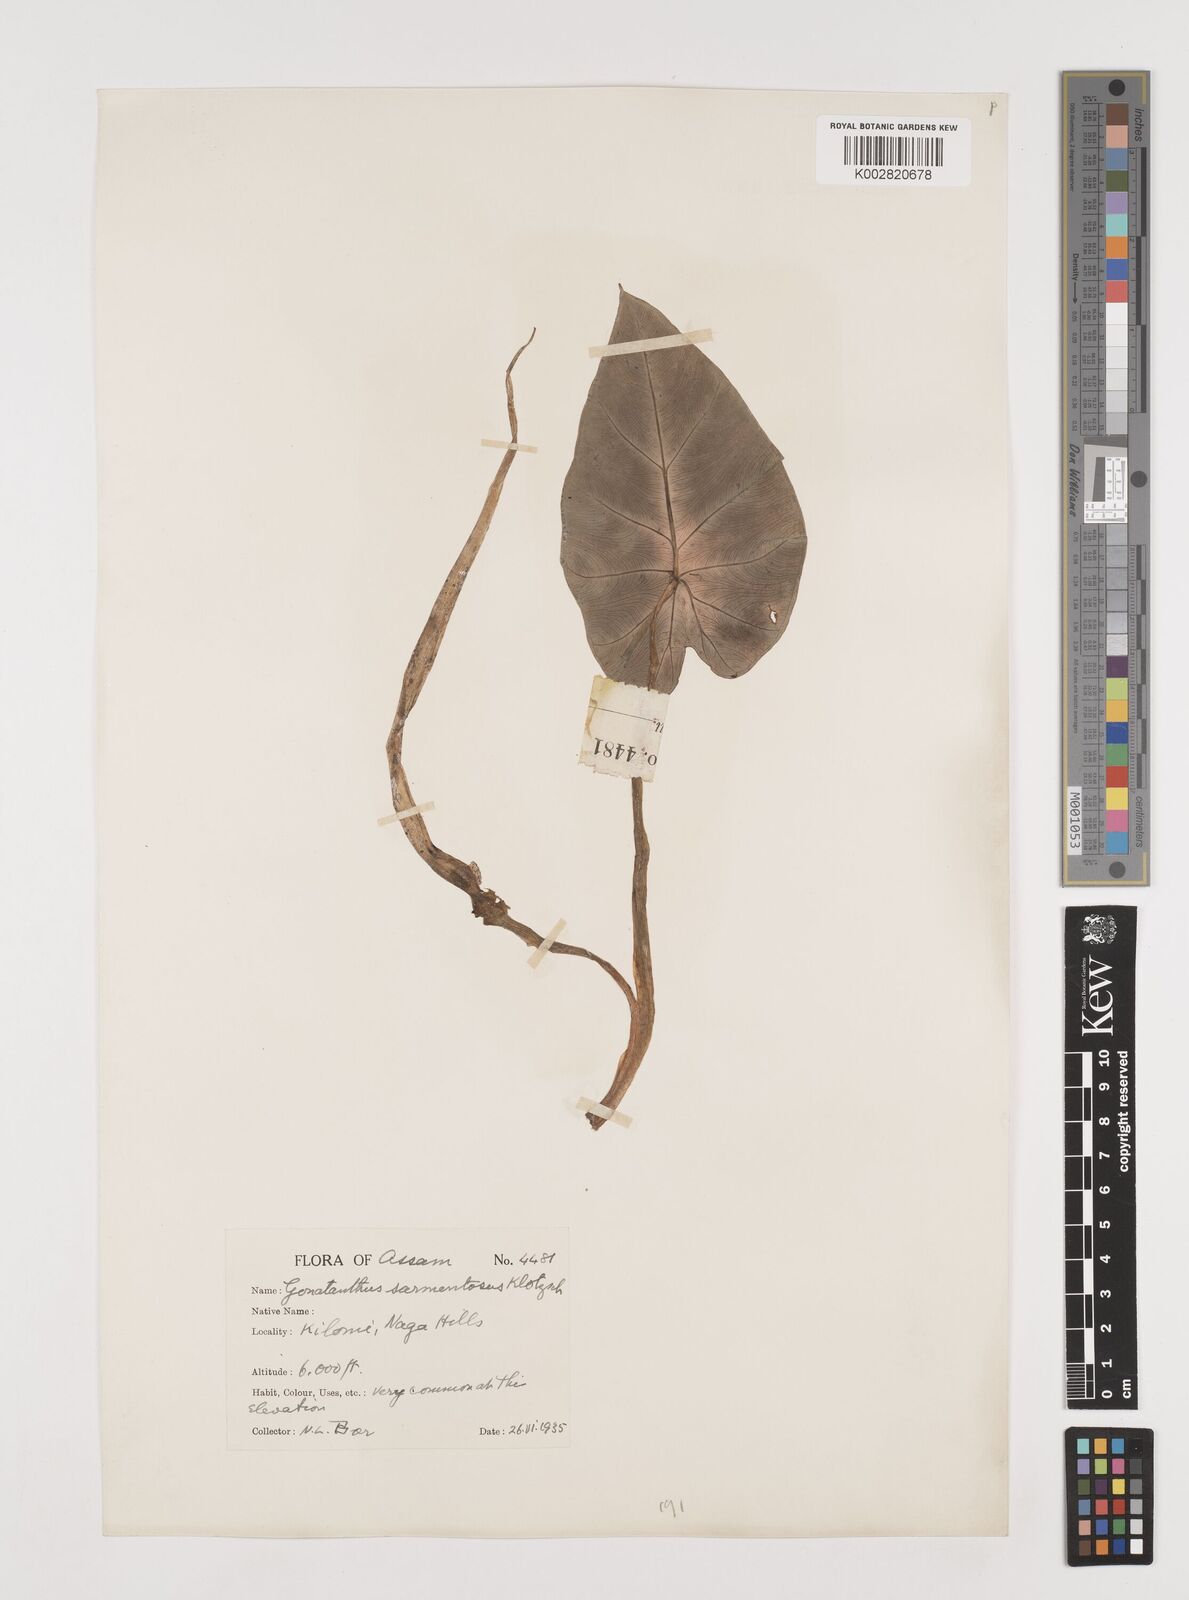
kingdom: Plantae
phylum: Tracheophyta
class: Liliopsida
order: Alismatales
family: Araceae
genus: Remusatia
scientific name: Remusatia pumila
